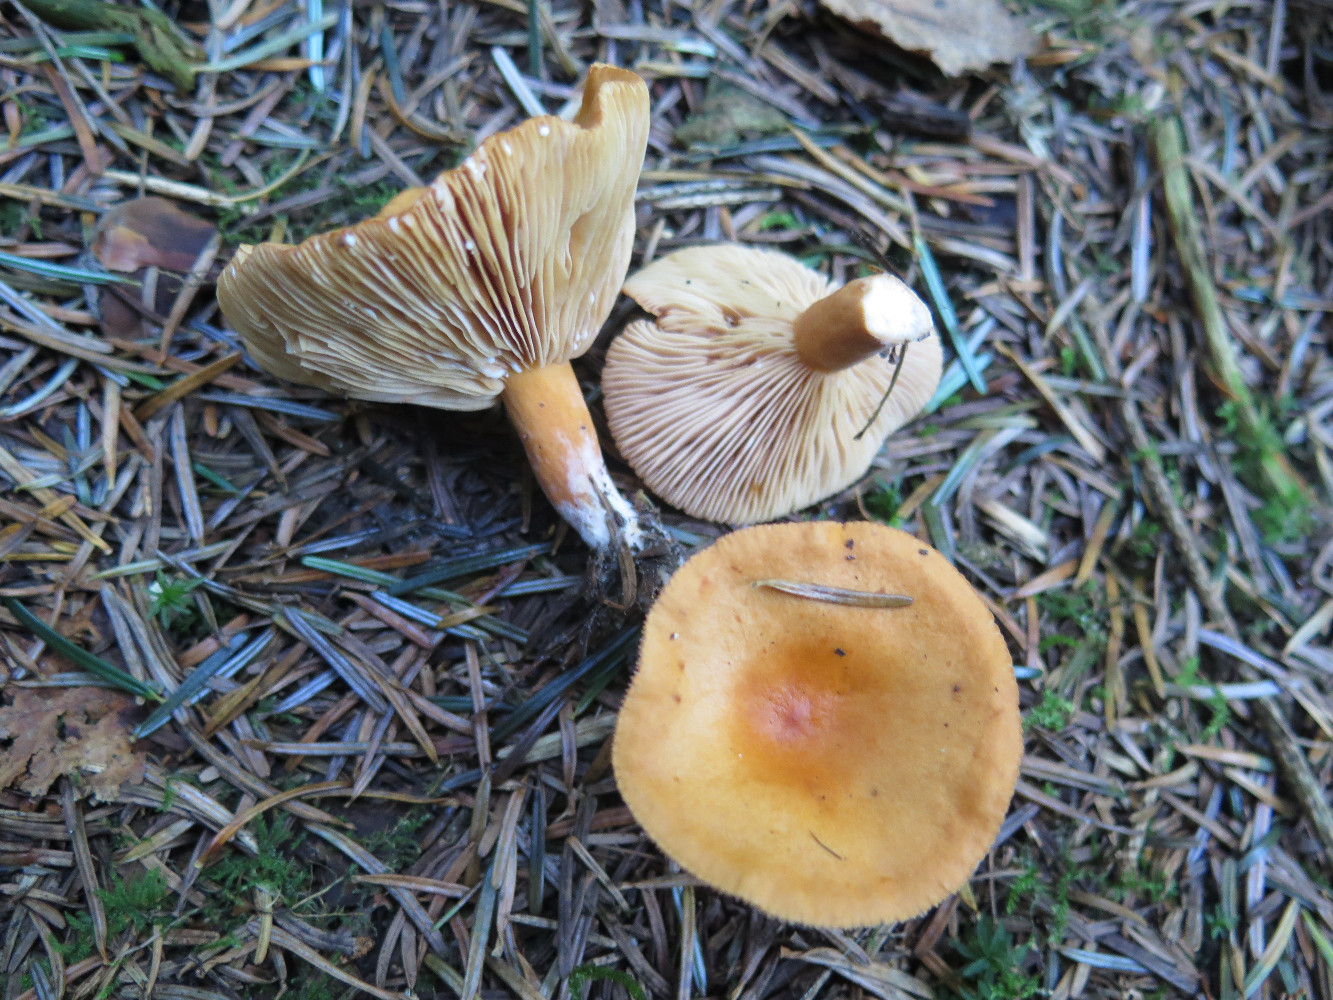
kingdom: Fungi
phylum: Basidiomycota
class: Agaricomycetes
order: Russulales
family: Russulaceae
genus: Lactarius
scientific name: Lactarius aurantiacus
